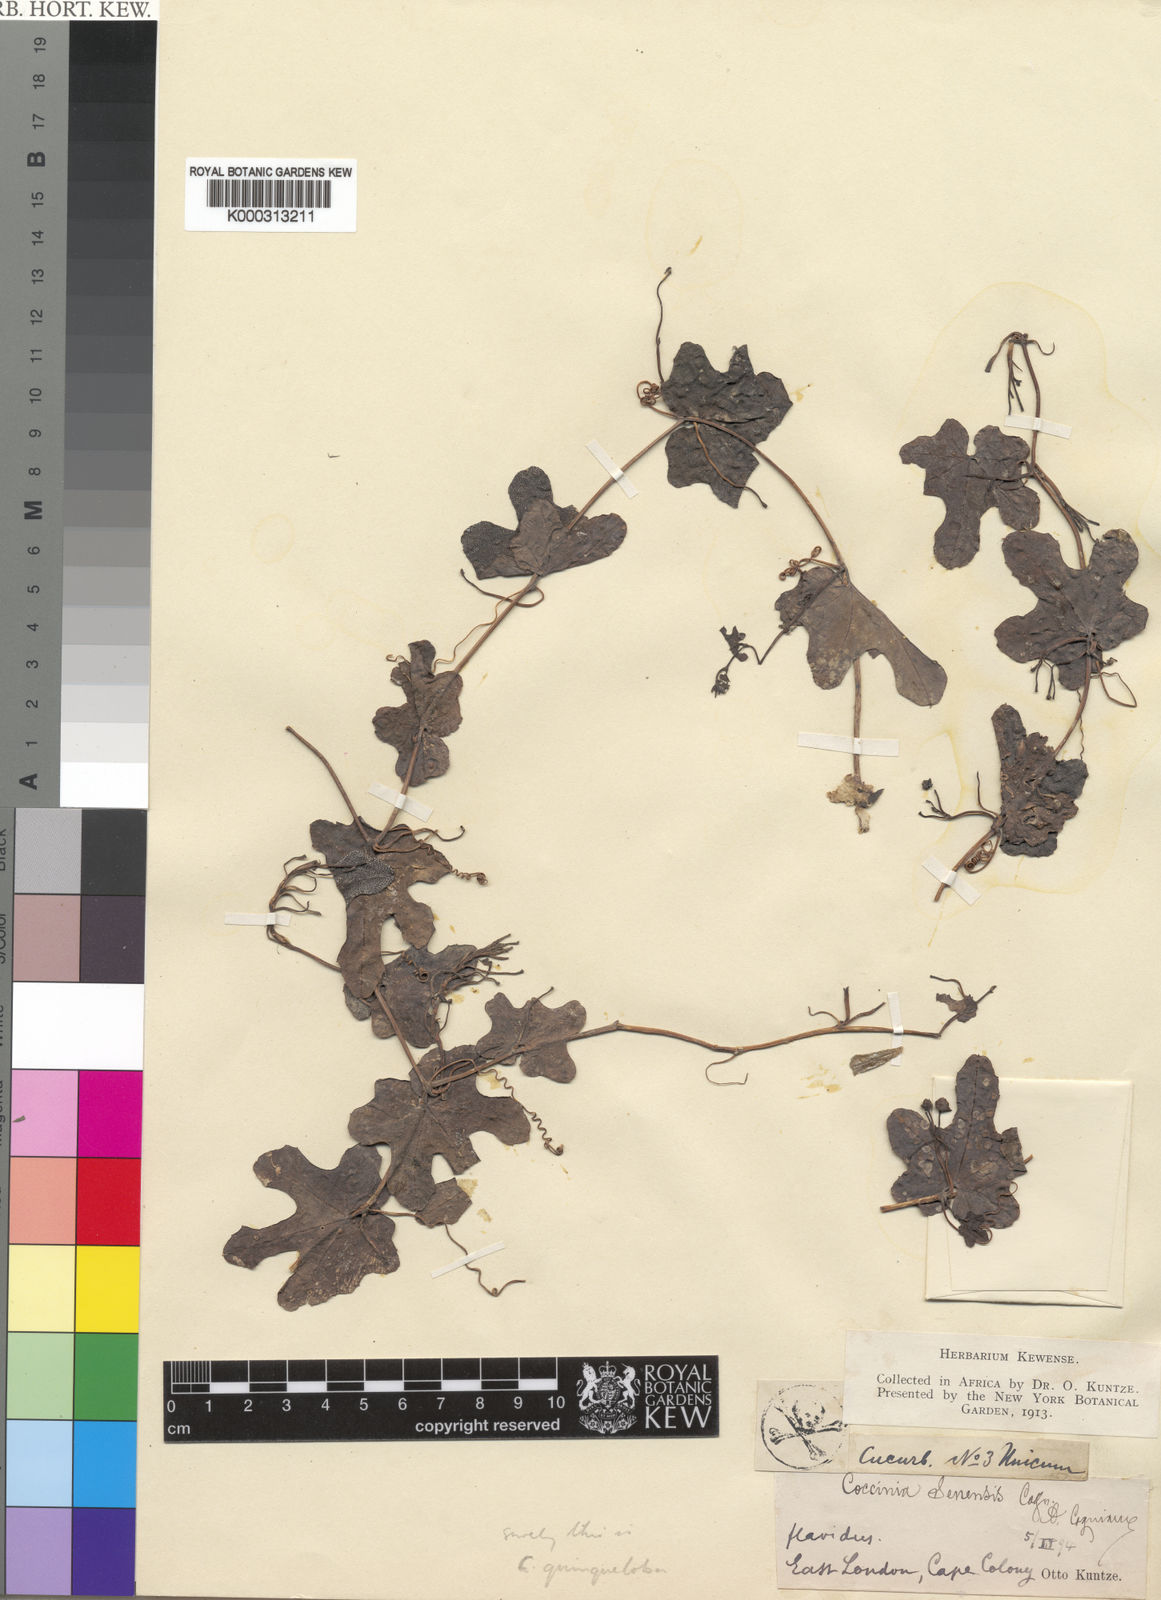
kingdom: Plantae
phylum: Tracheophyta
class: Magnoliopsida
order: Cucurbitales
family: Cucurbitaceae
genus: Coccinia
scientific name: Coccinia quinqueloba
